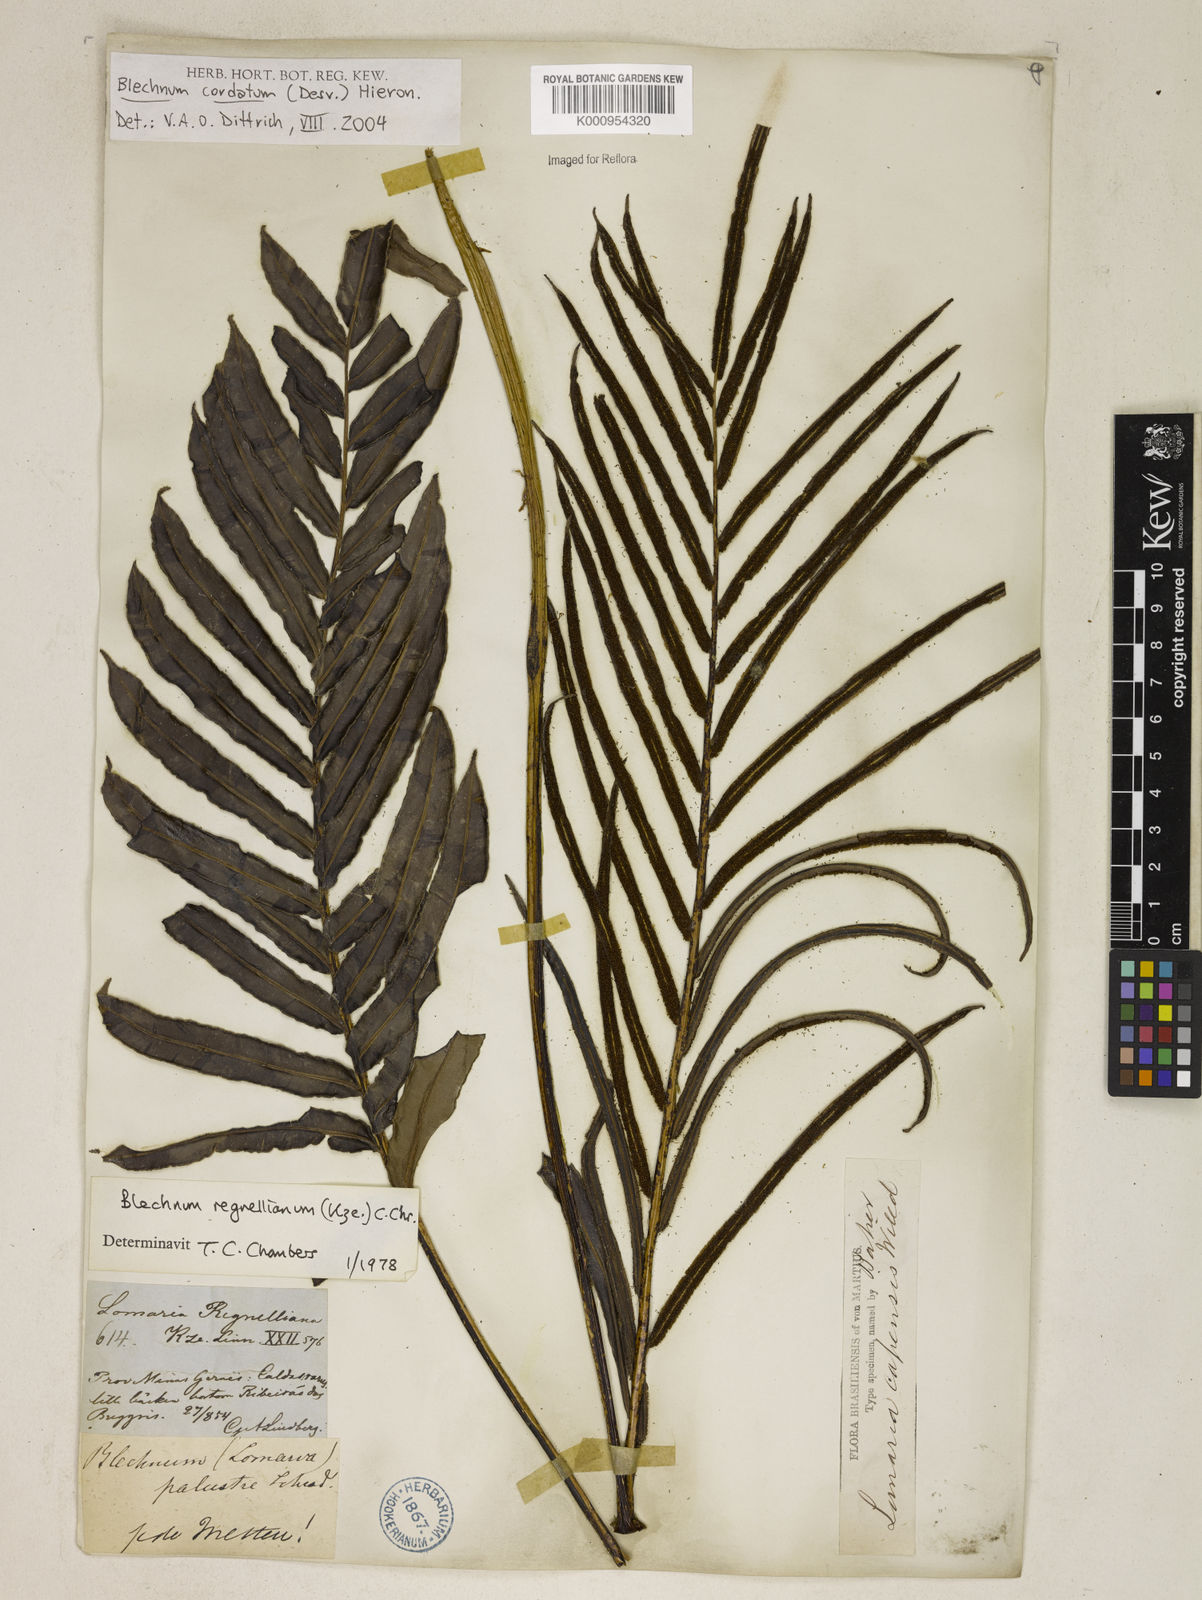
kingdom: Plantae
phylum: Tracheophyta
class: Polypodiopsida
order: Polypodiales
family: Blechnaceae
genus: Parablechnum
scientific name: Parablechnum cordatum
